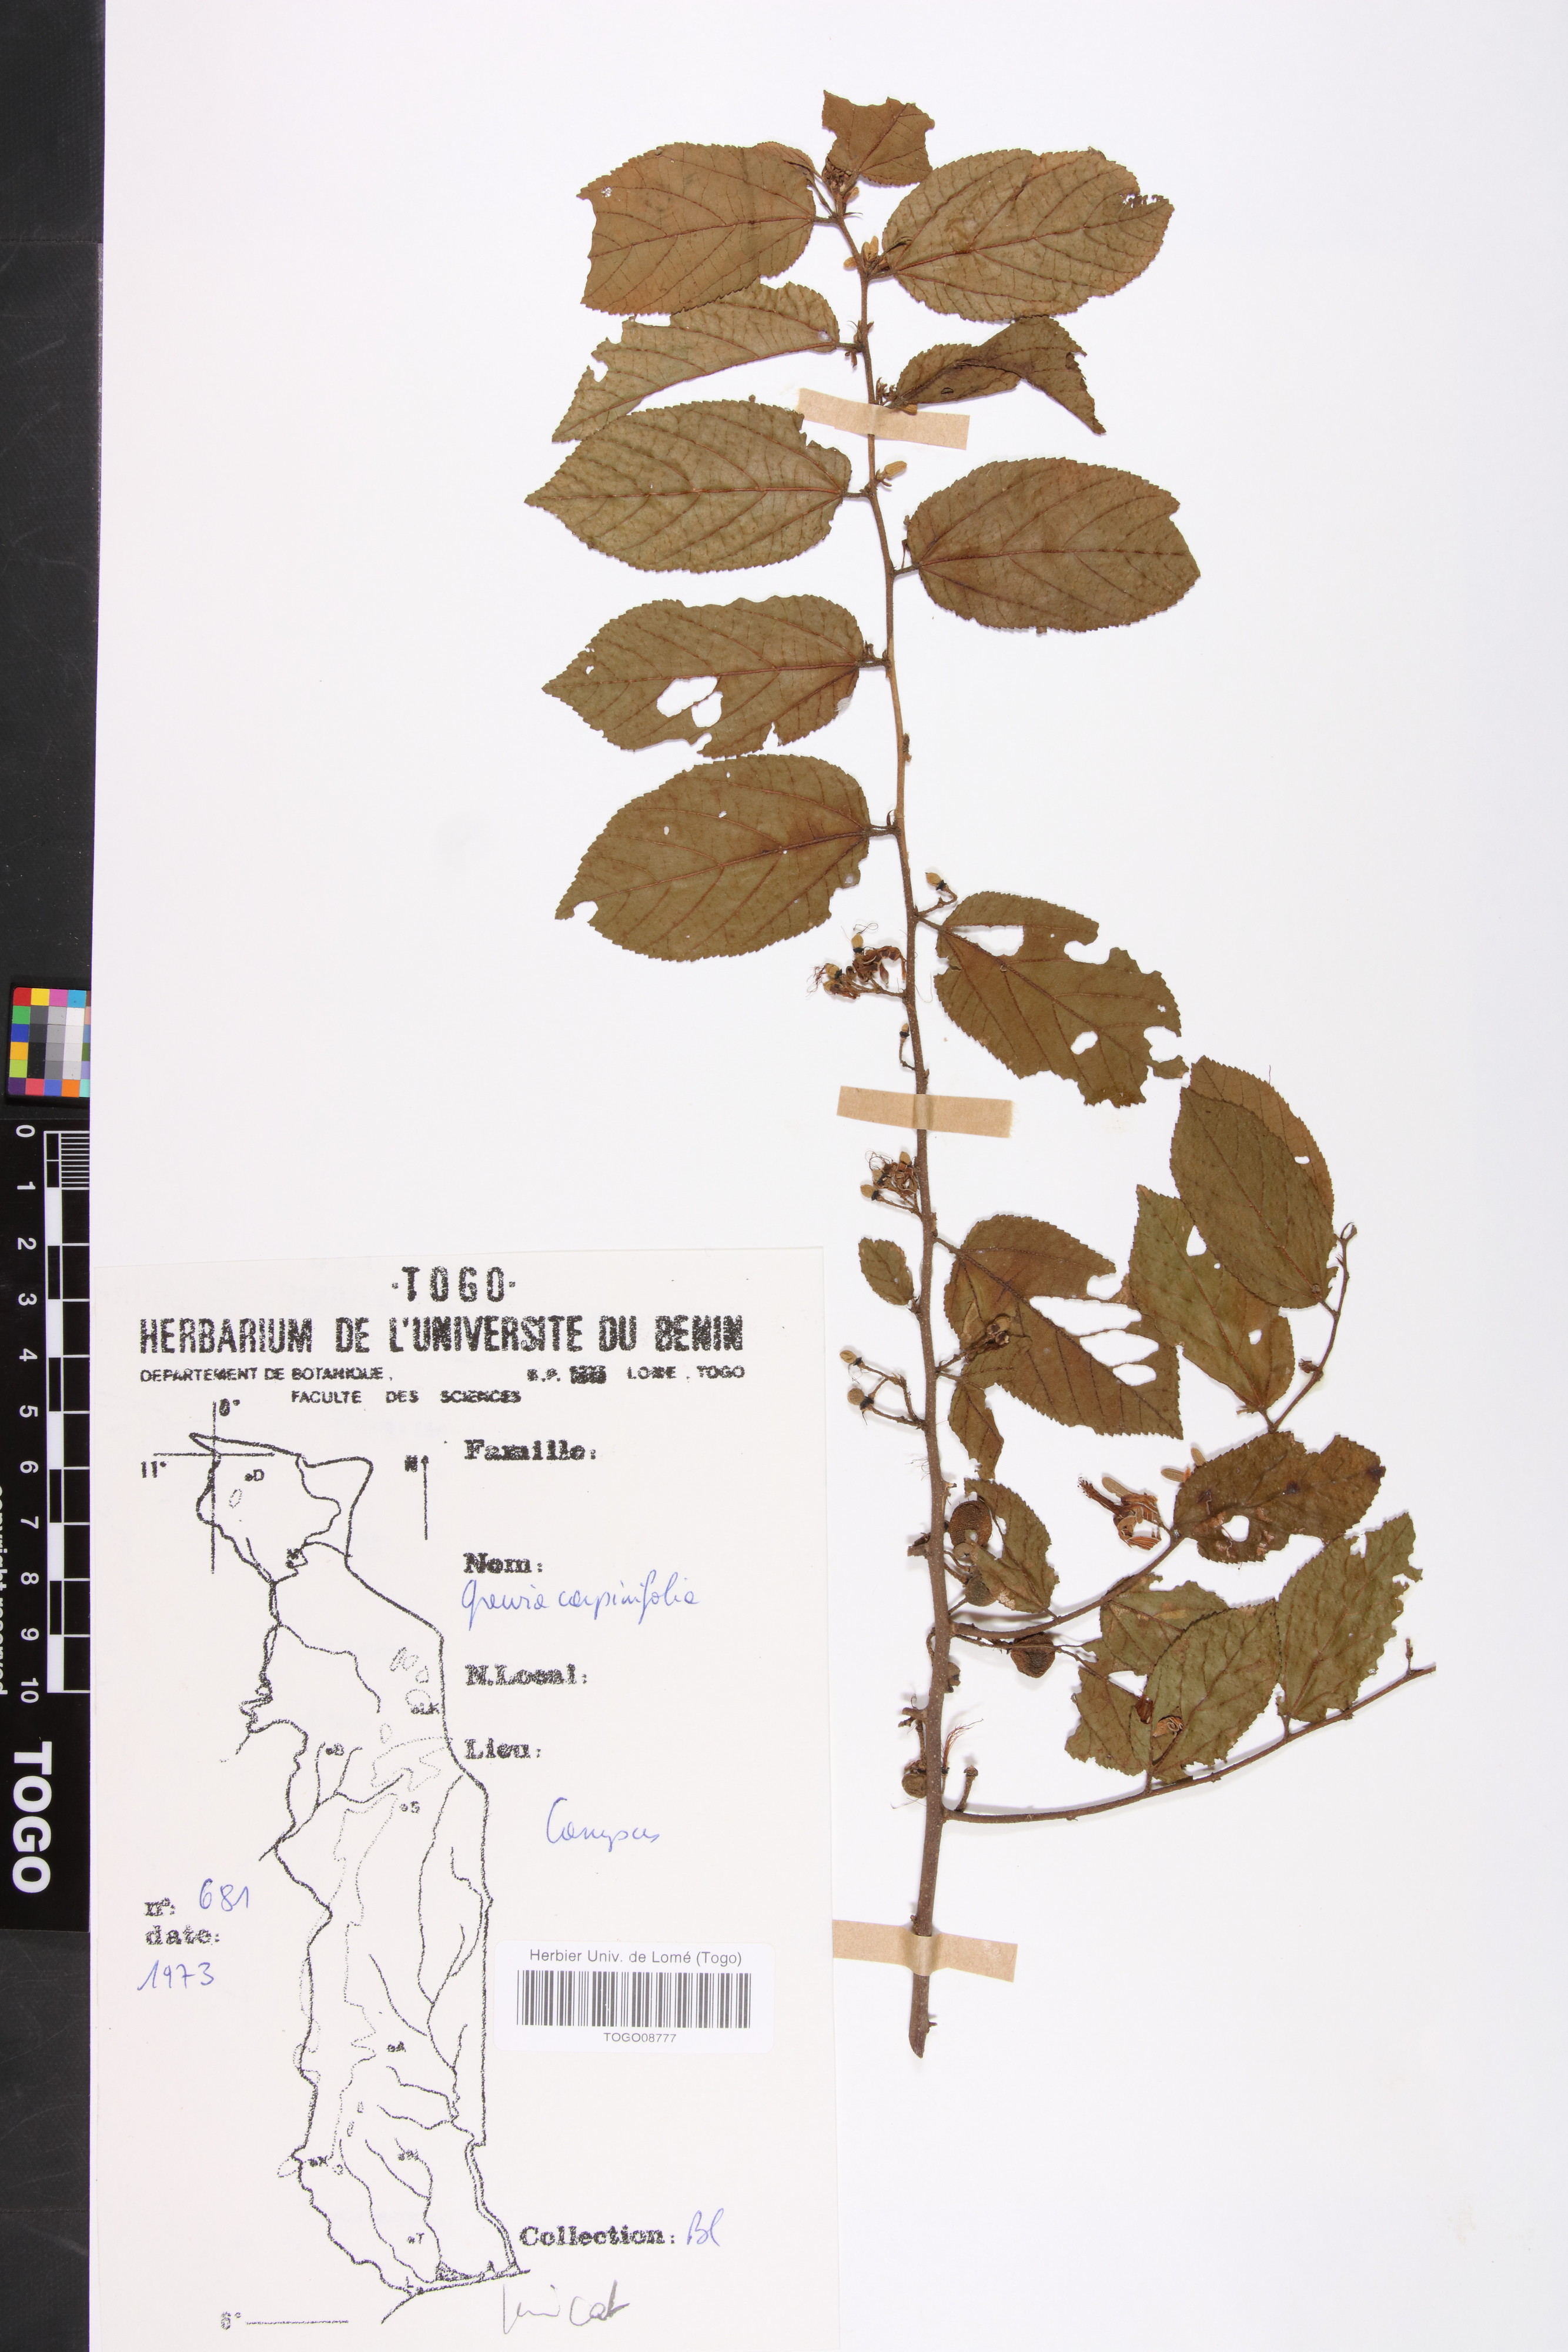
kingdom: Plantae
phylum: Tracheophyta
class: Magnoliopsida
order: Malvales
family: Malvaceae
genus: Grewia
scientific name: Grewia carpinifolia
